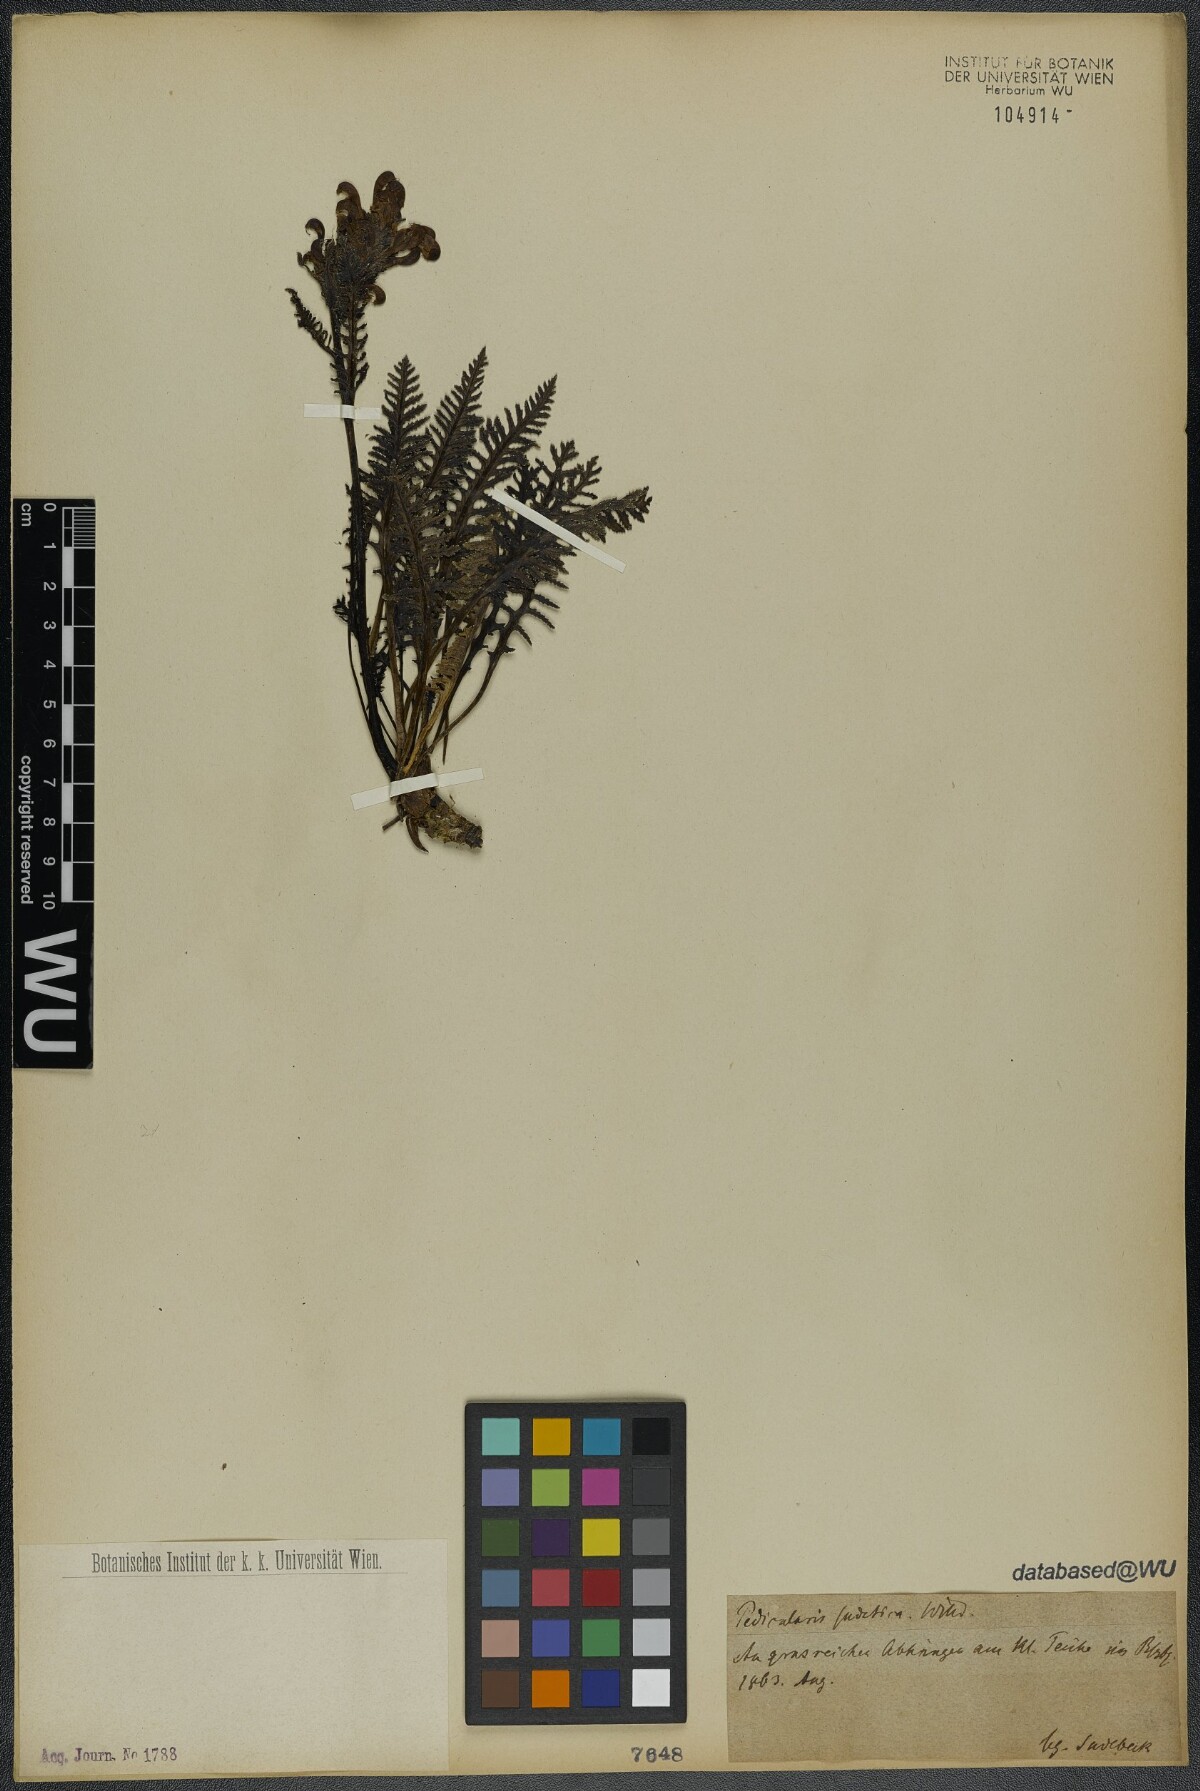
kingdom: Plantae
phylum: Tracheophyta
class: Magnoliopsida
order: Lamiales
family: Orobanchaceae
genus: Pedicularis
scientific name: Pedicularis sudetica
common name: Sudeten lousewort
